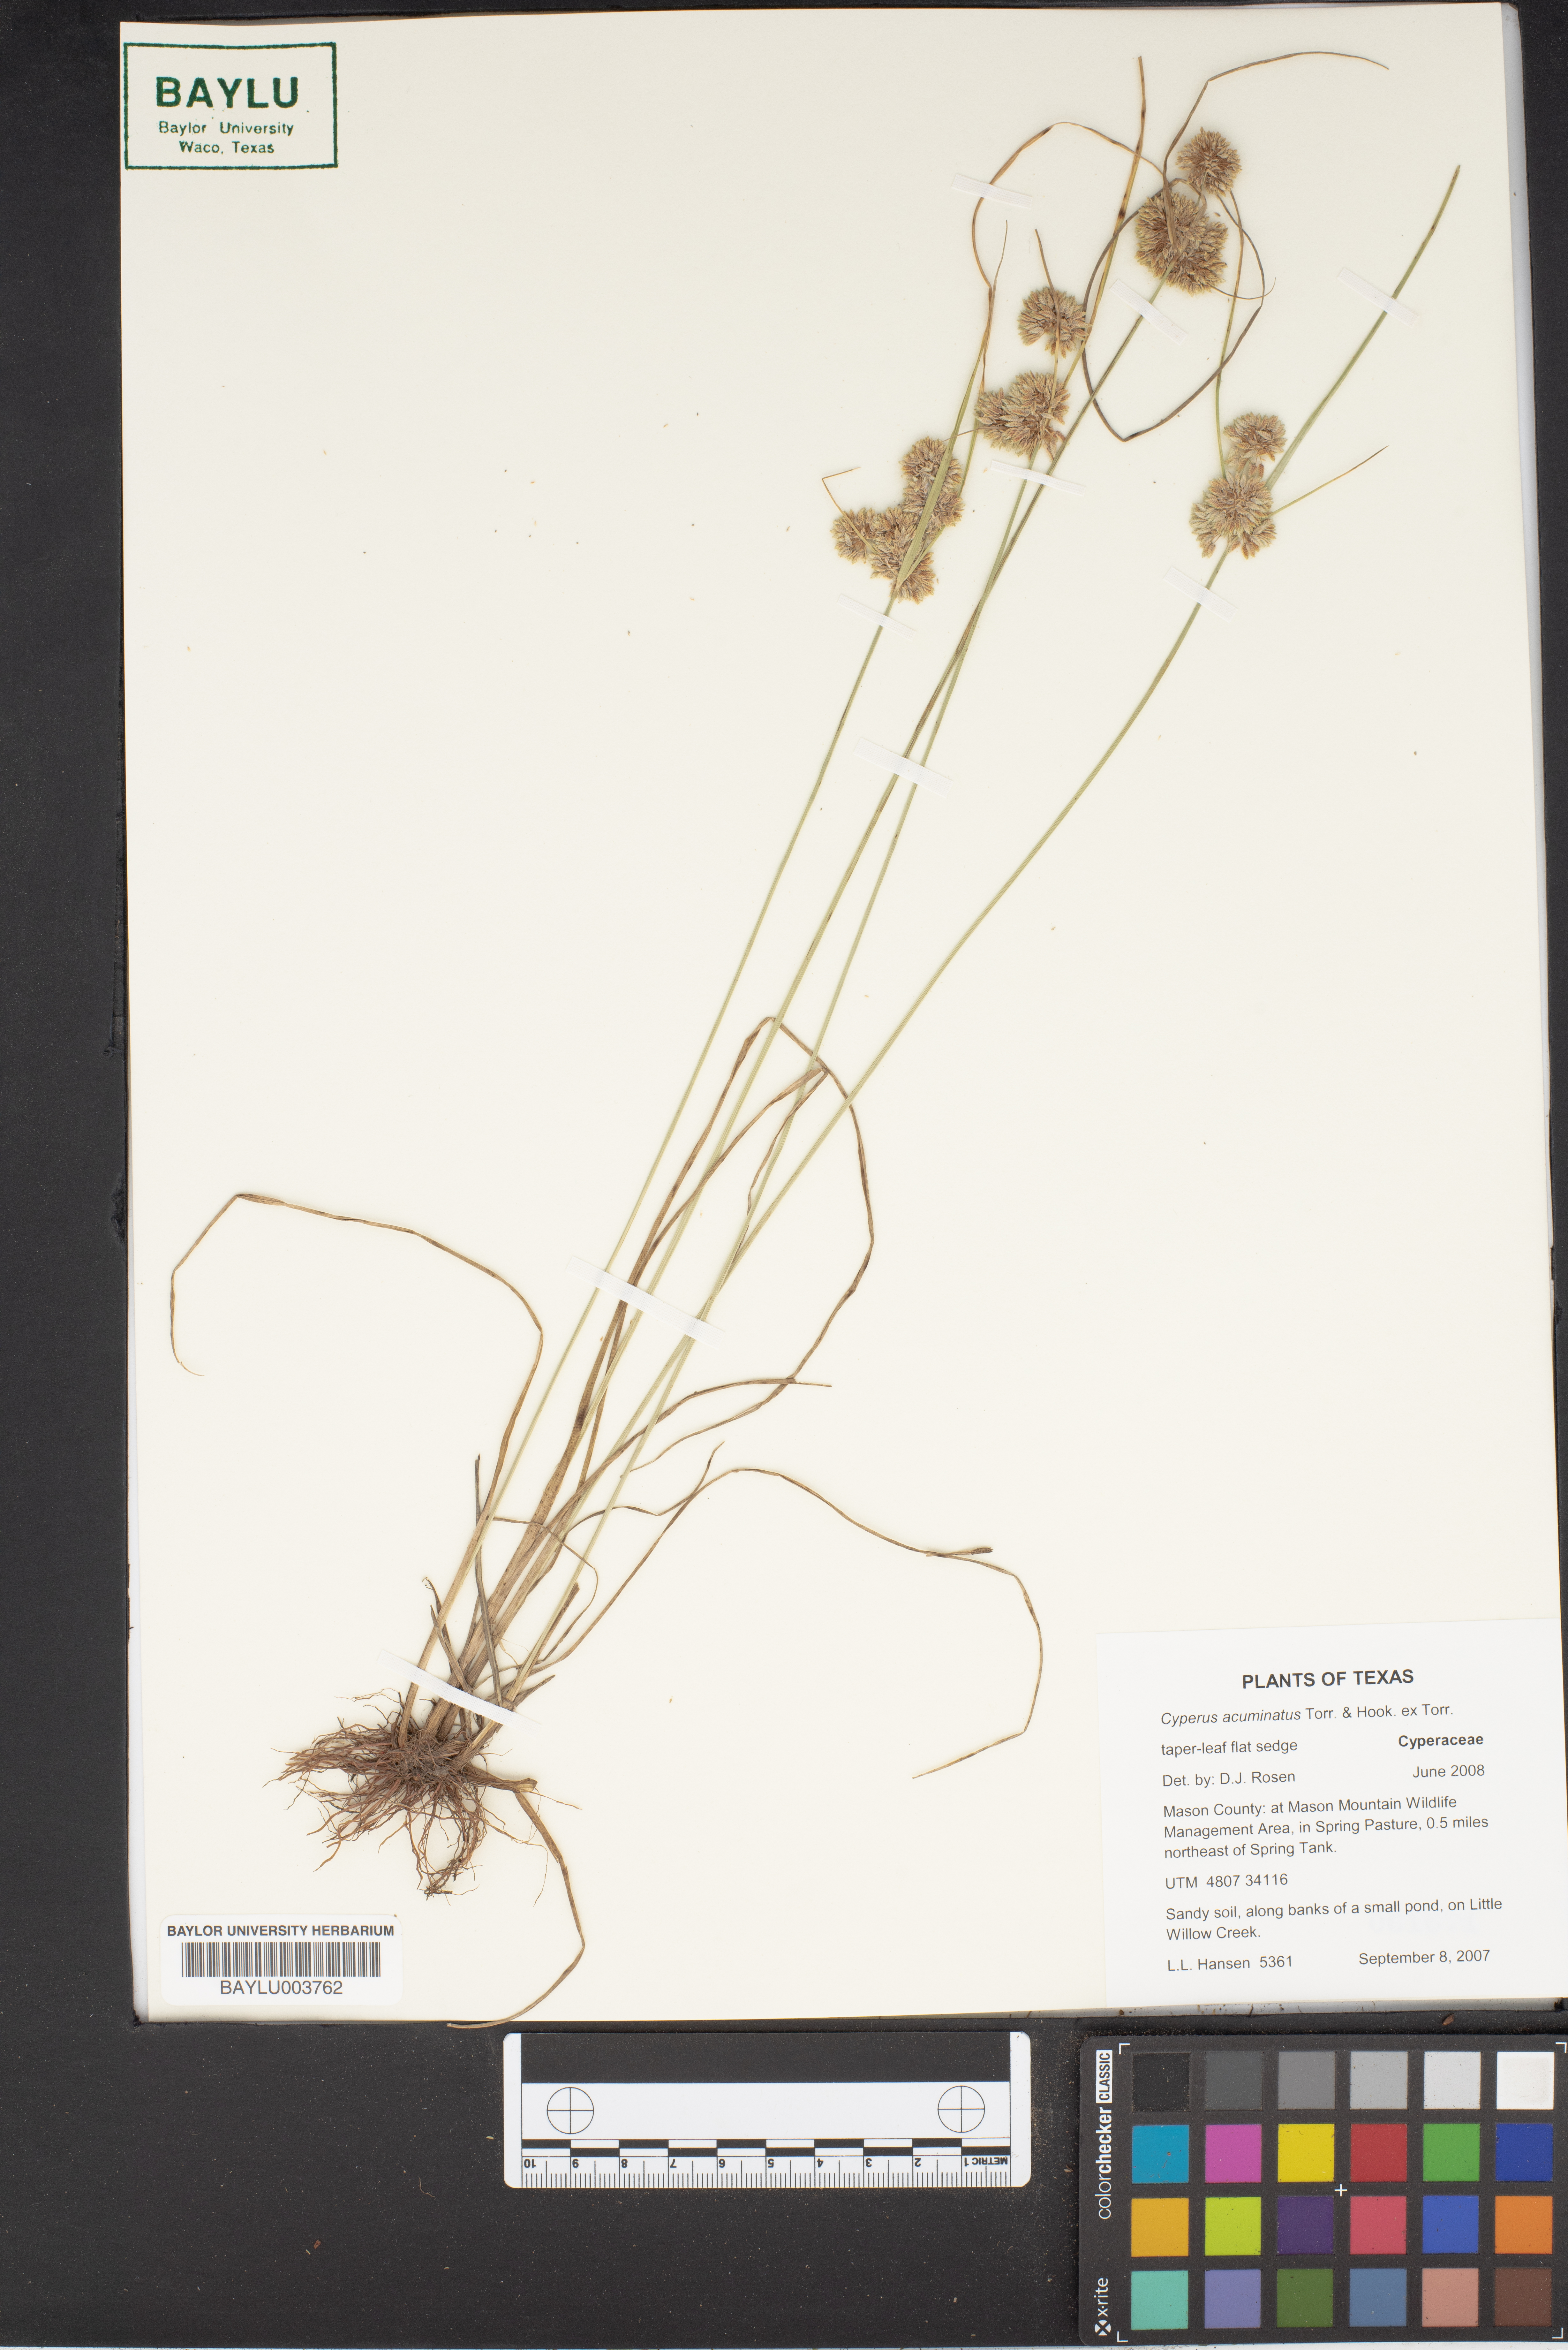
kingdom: Plantae
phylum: Tracheophyta
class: Liliopsida
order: Poales
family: Cyperaceae
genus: Cyperus
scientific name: Cyperus acuminatus
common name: Short-pointed cyperus
